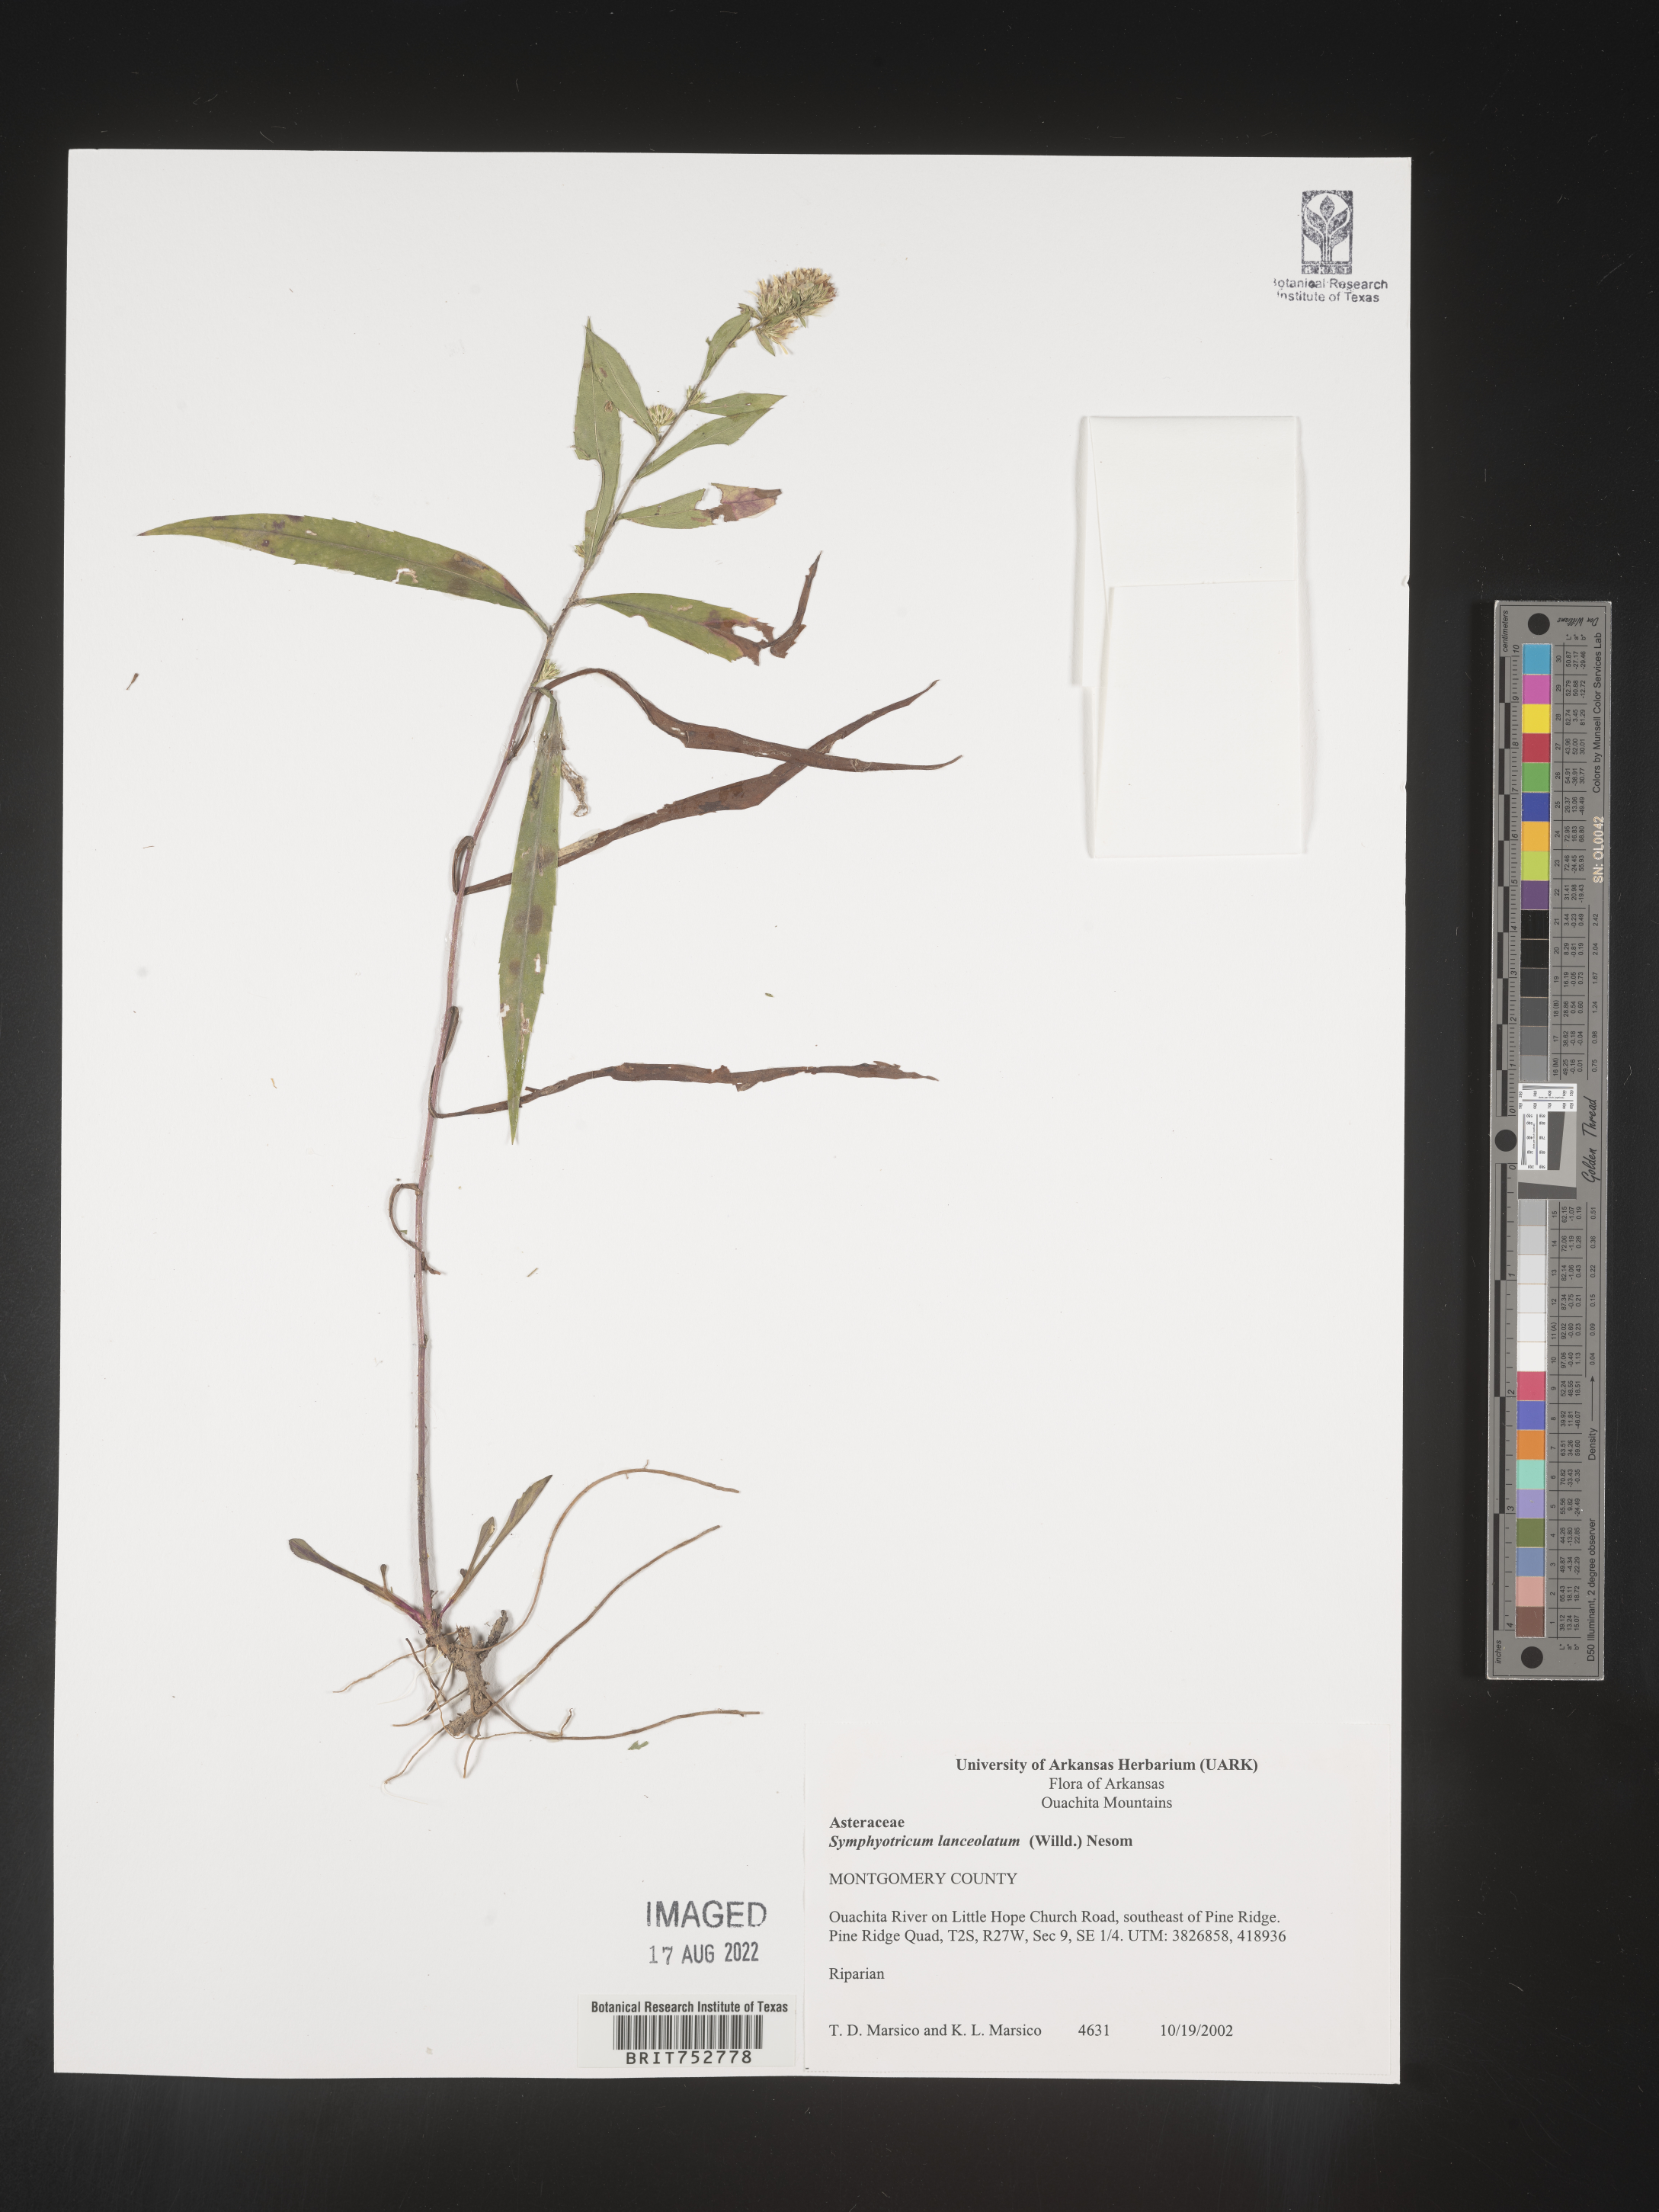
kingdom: Plantae
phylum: Tracheophyta
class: Magnoliopsida
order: Asterales
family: Asteraceae
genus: Symphyotrichum
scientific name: Symphyotrichum lanceolatum
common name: Panicled aster
